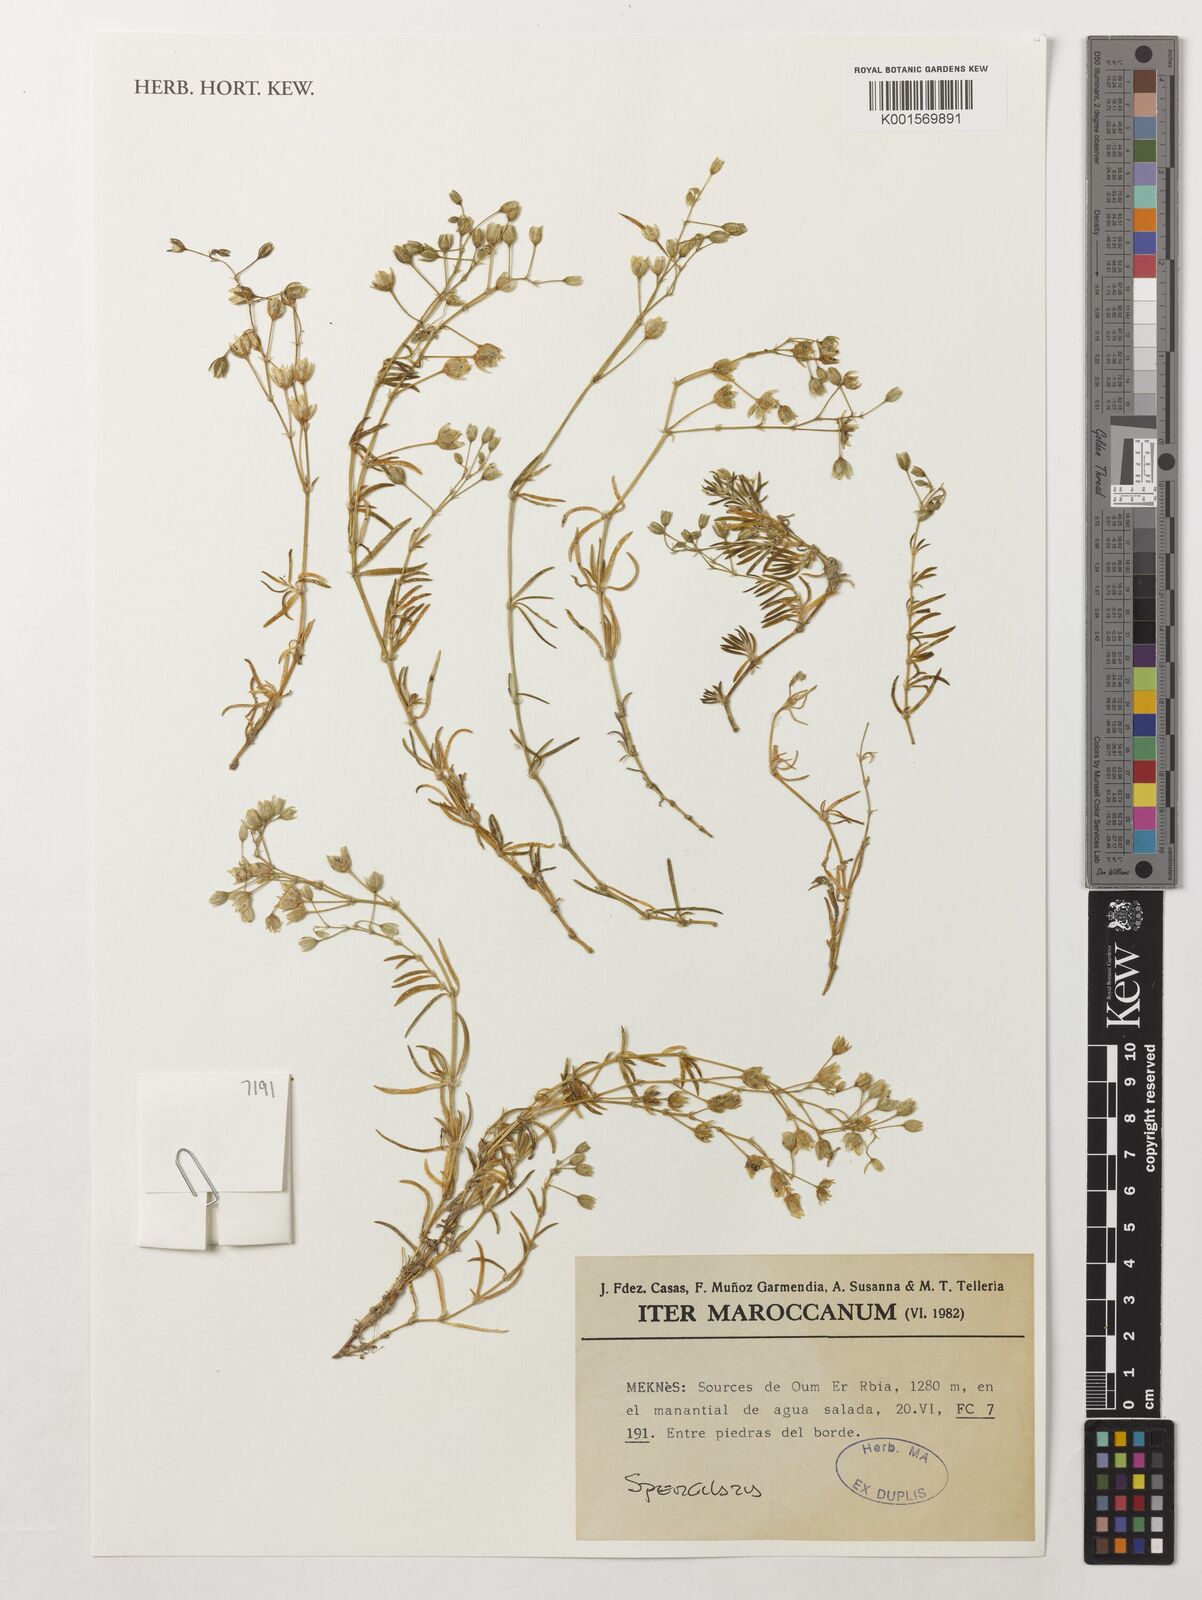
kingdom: Plantae
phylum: Tracheophyta
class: Magnoliopsida
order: Caryophyllales
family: Caryophyllaceae
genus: Spergularia
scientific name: Spergularia
